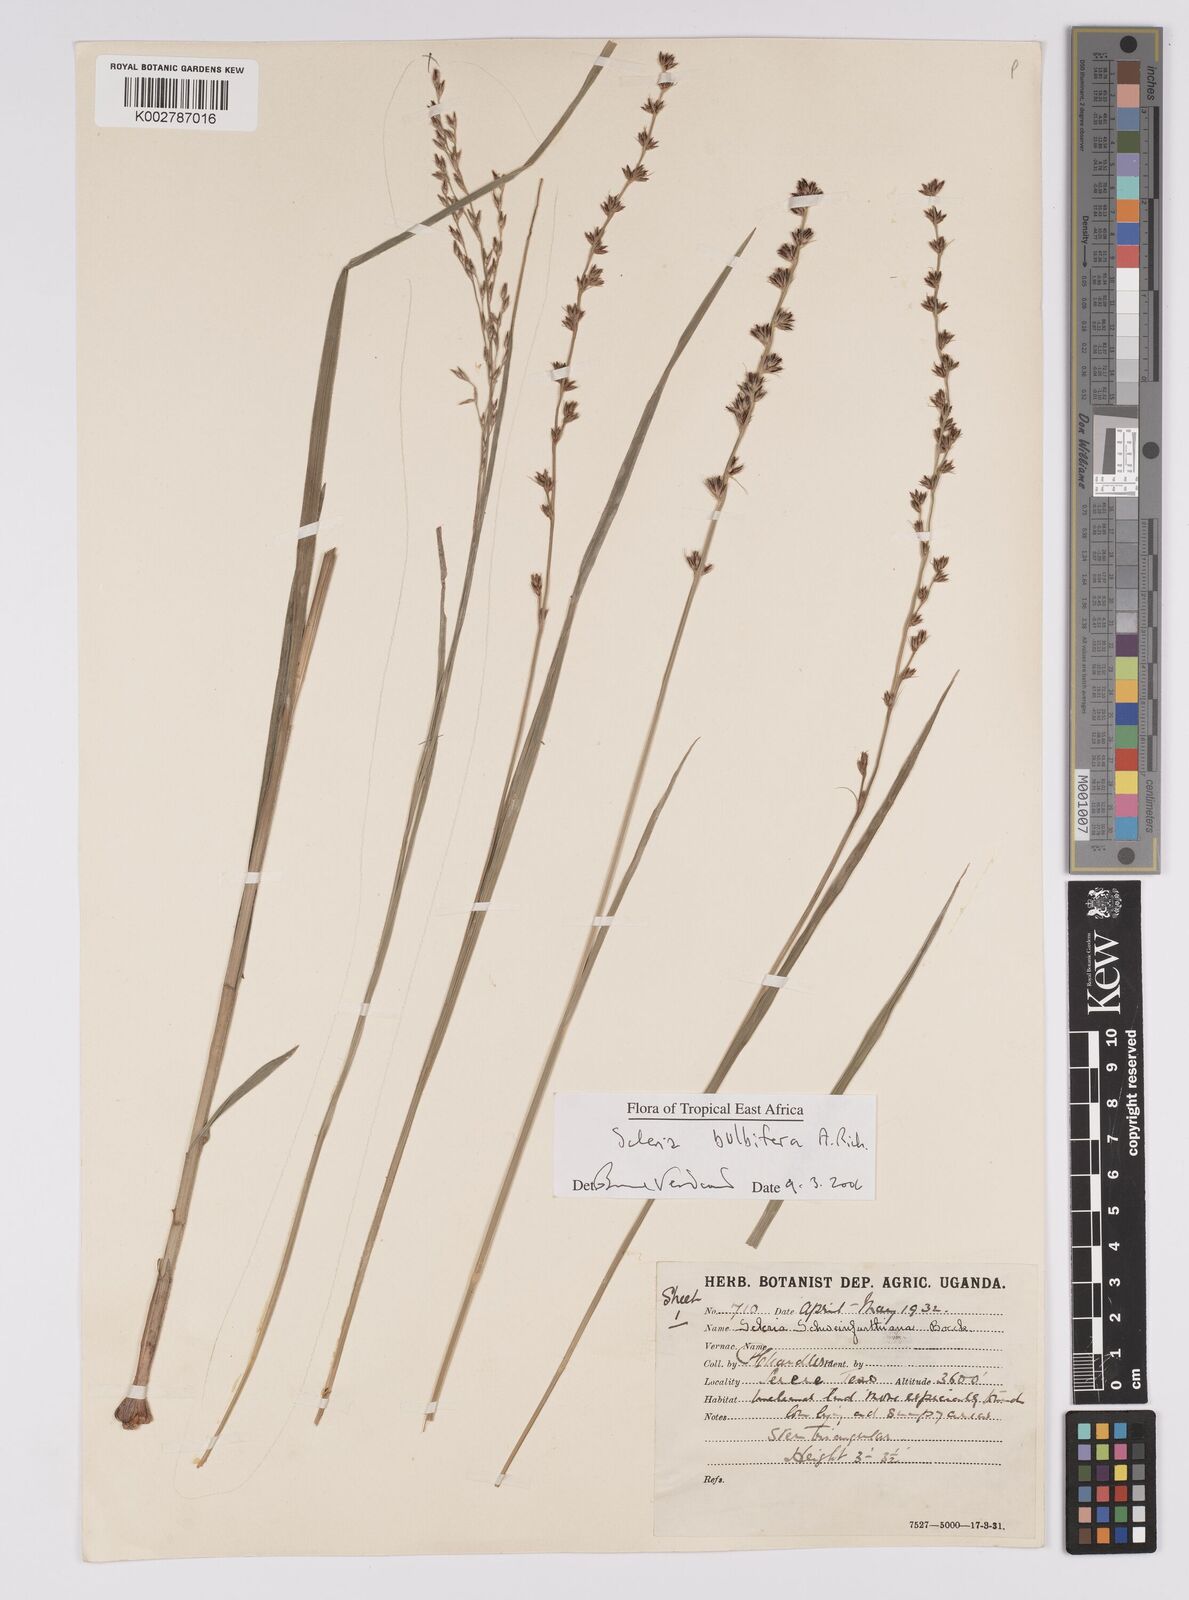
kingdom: Plantae
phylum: Tracheophyta
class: Liliopsida
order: Poales
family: Cyperaceae
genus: Scleria
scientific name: Scleria bulbifera
